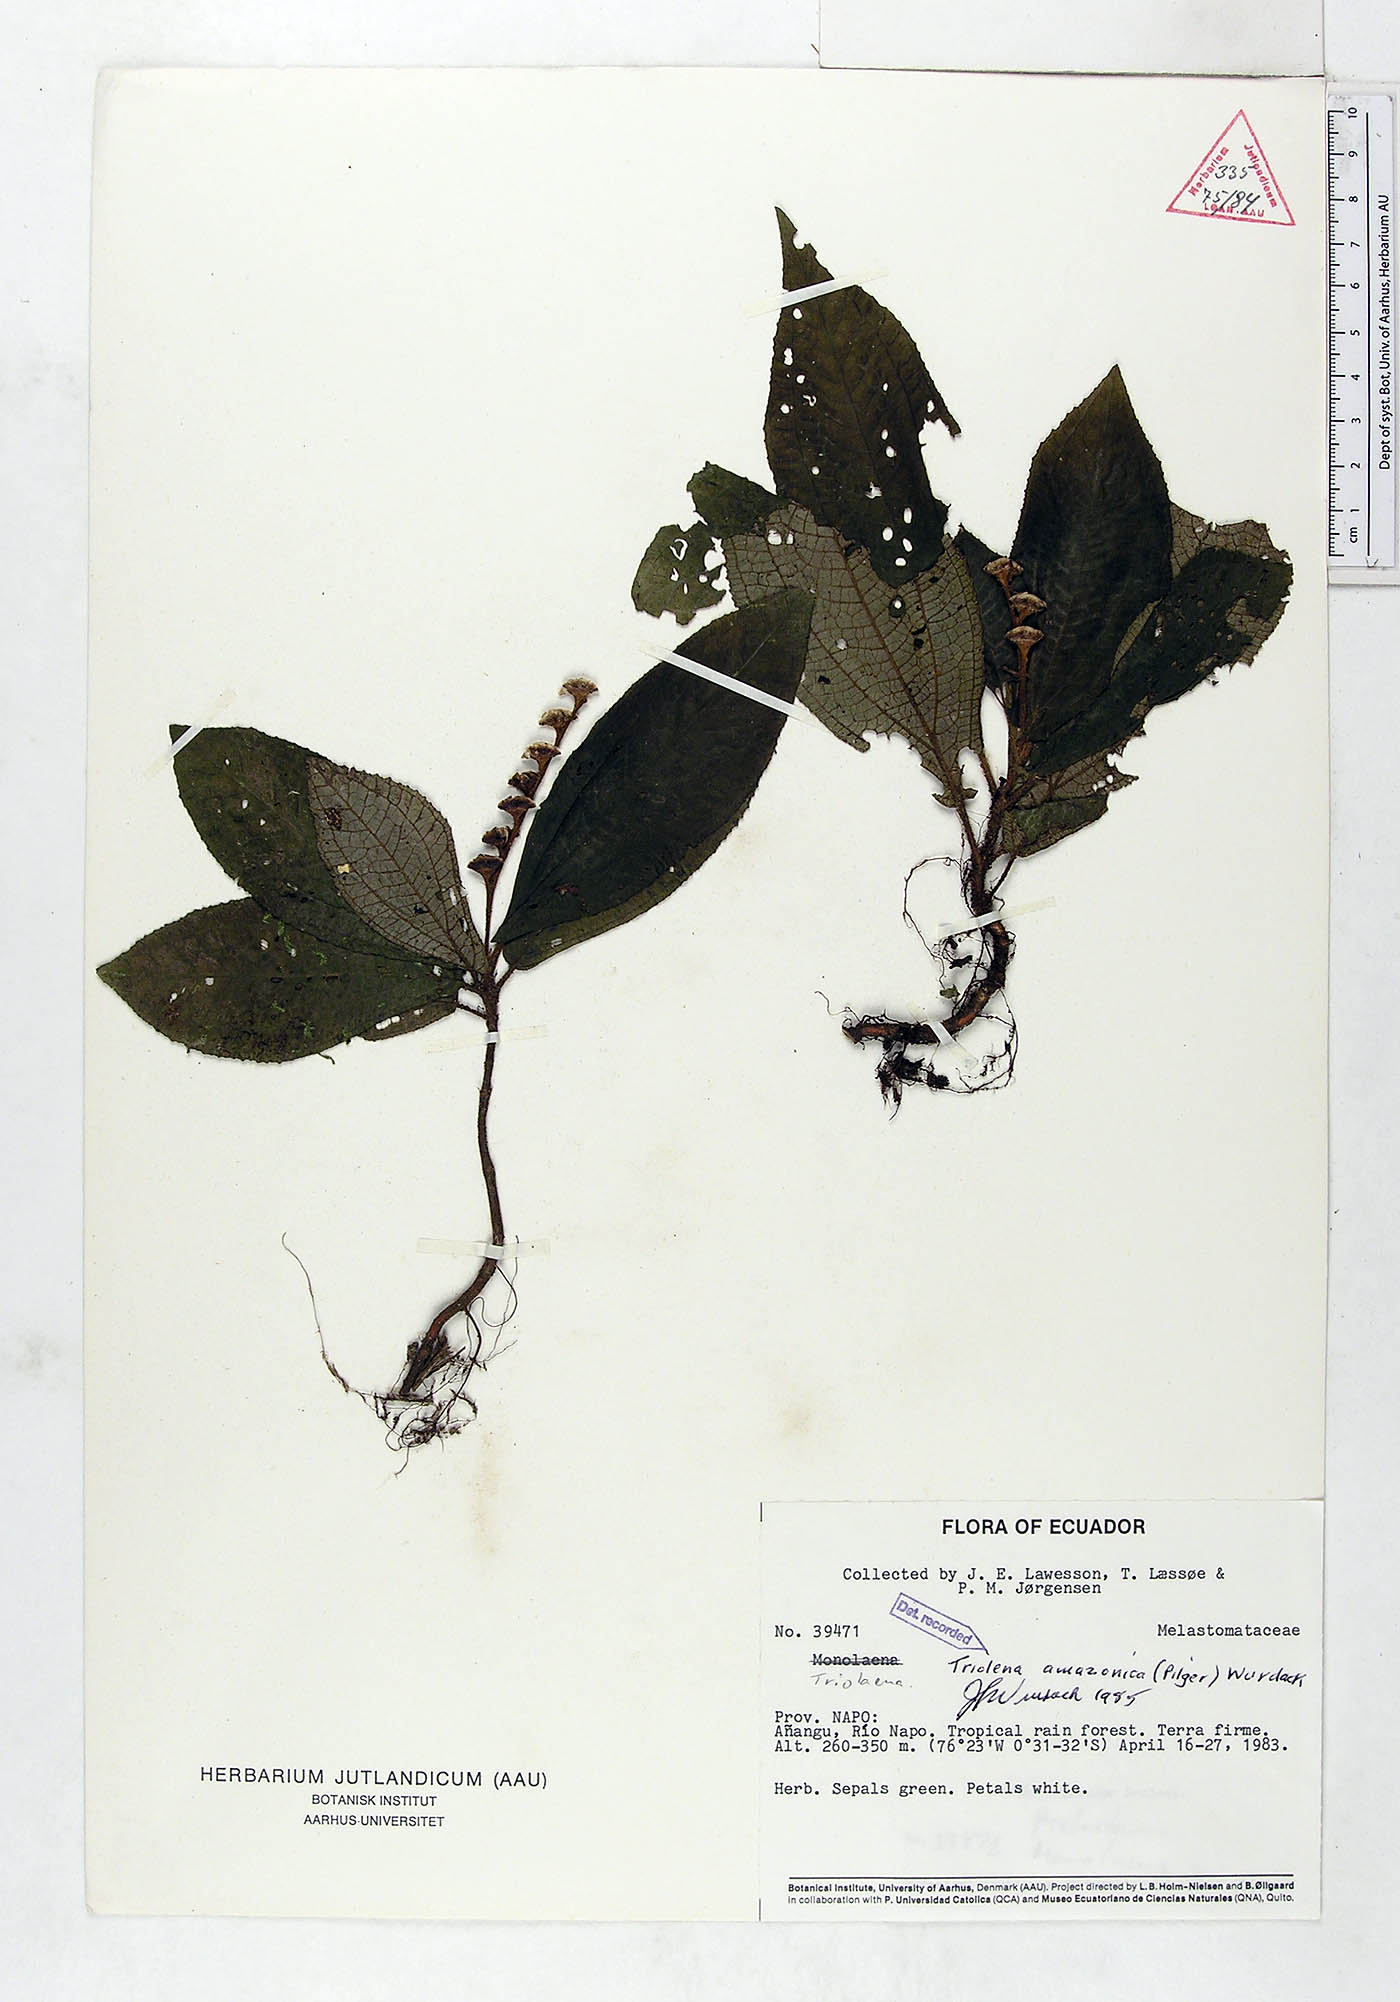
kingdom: Plantae
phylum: Tracheophyta
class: Magnoliopsida
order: Myrtales
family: Melastomataceae
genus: Triolena
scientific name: Triolena amazonica
